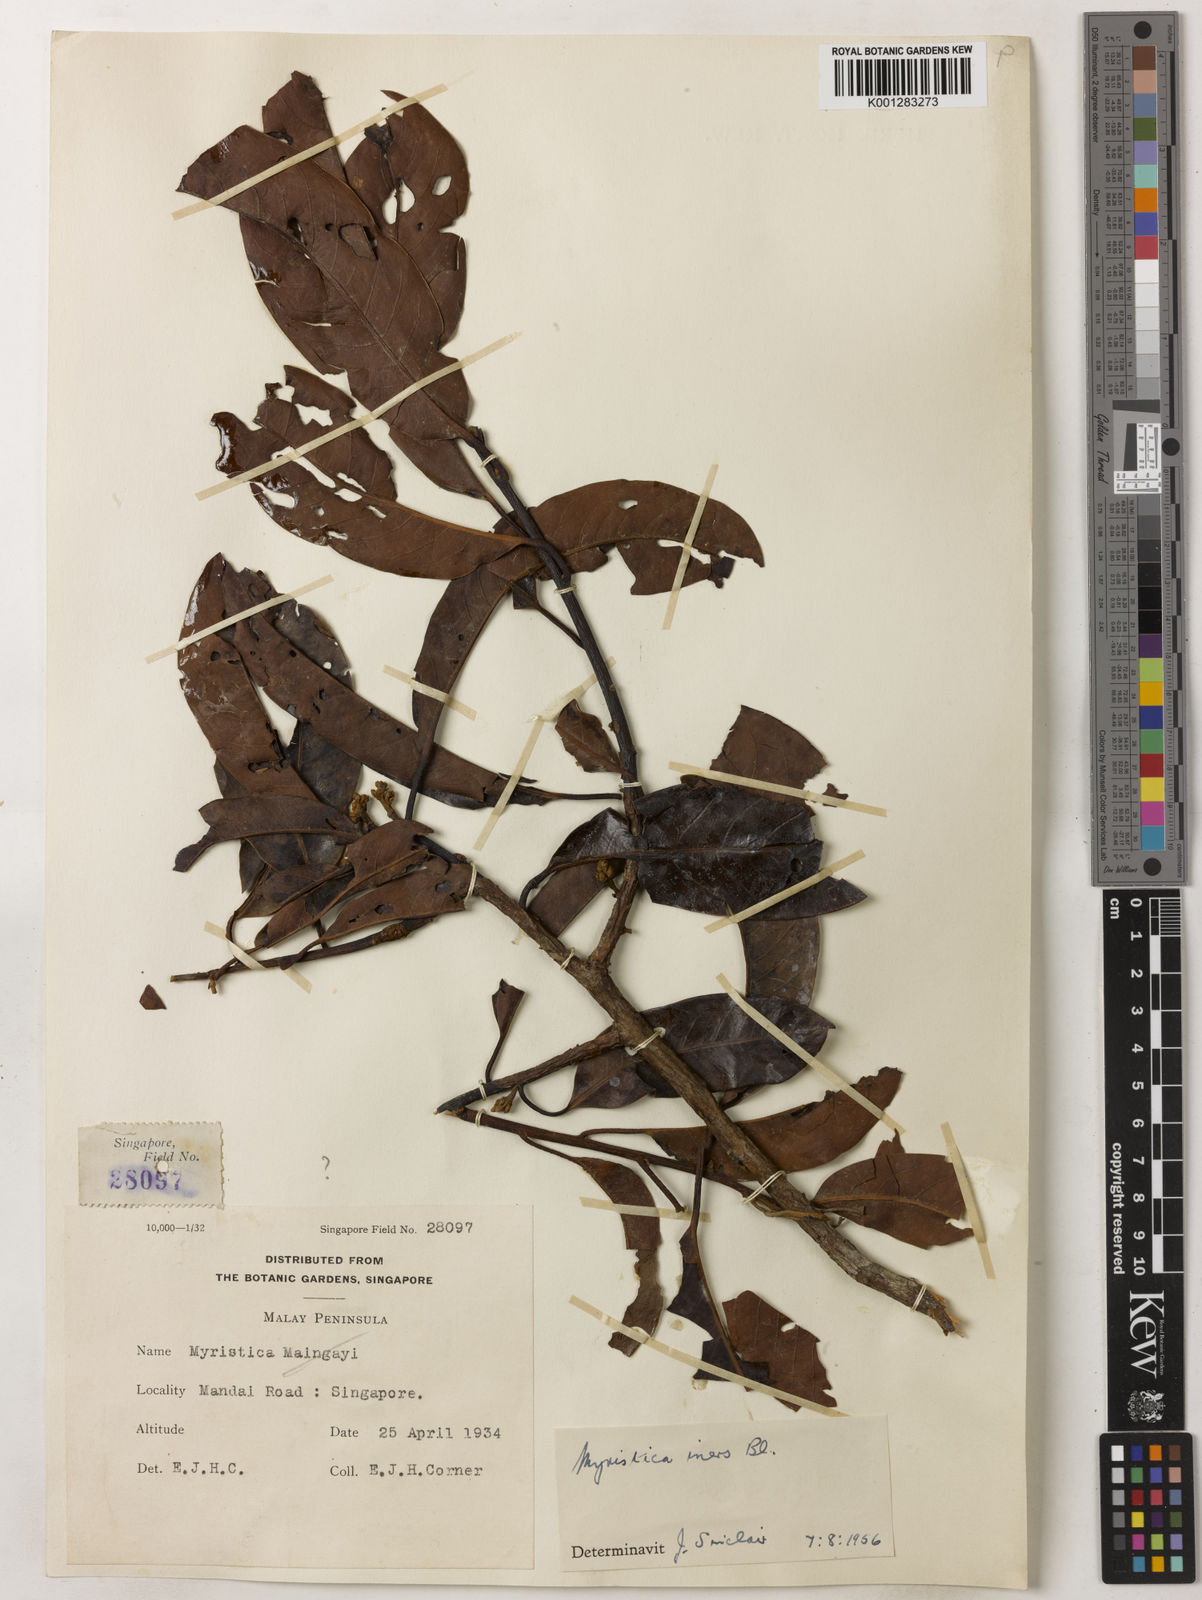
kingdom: Plantae
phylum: Tracheophyta
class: Magnoliopsida
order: Magnoliales
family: Myristicaceae
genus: Myristica
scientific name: Myristica iners
